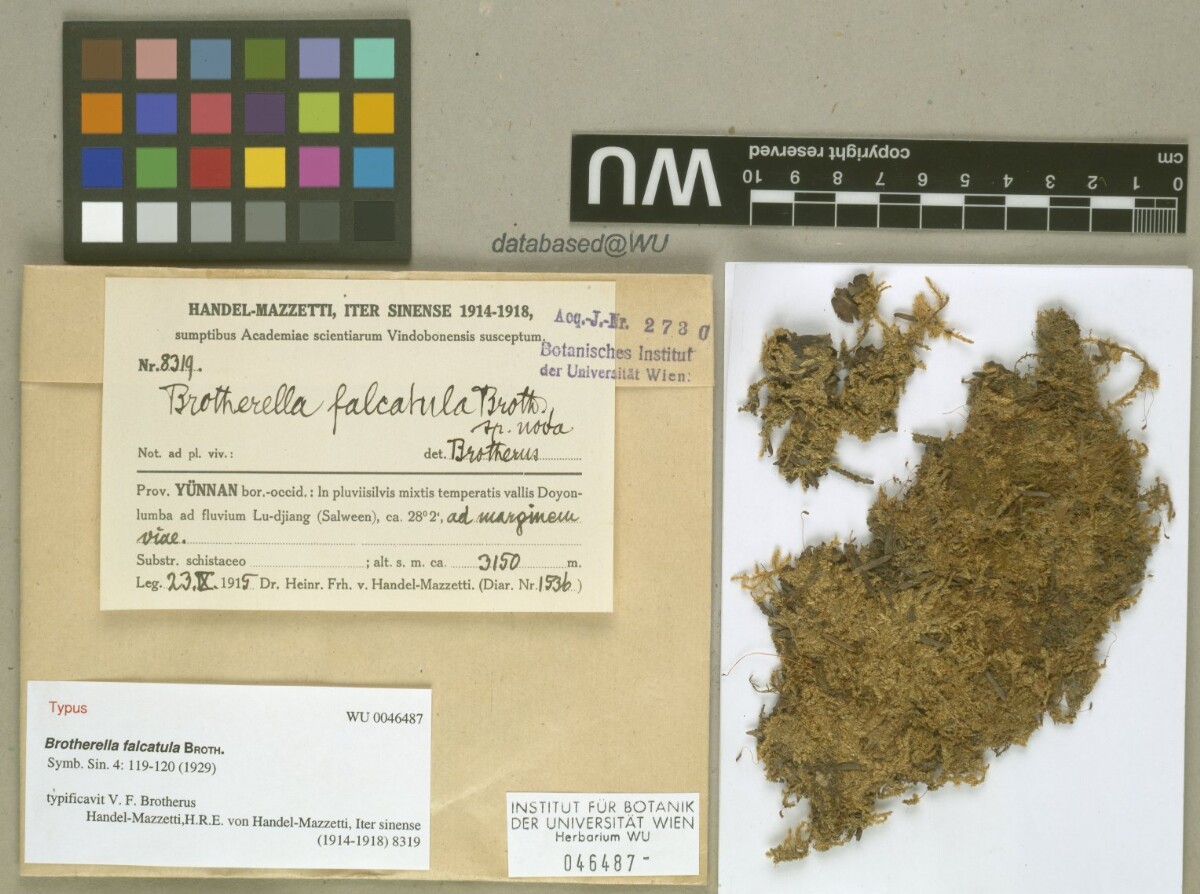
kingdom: Plantae
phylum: Bryophyta
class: Bryopsida
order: Hypnales
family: Pylaisiadelphaceae
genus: Brotherella
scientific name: Brotherella henonii
